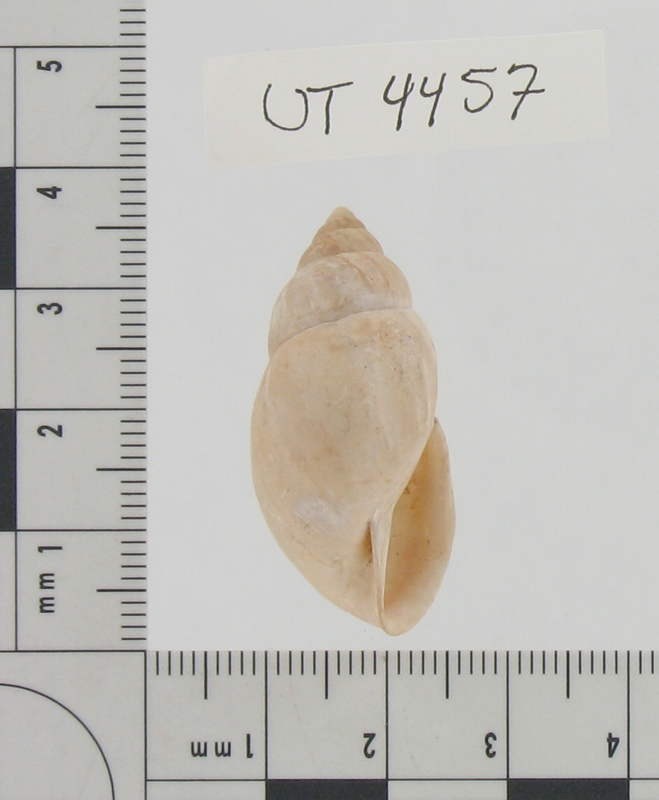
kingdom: Animalia
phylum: Mollusca
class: Gastropoda
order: Stylommatophora
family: Bulimulidae
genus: Rabdotus
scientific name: Rabdotus alternatus
